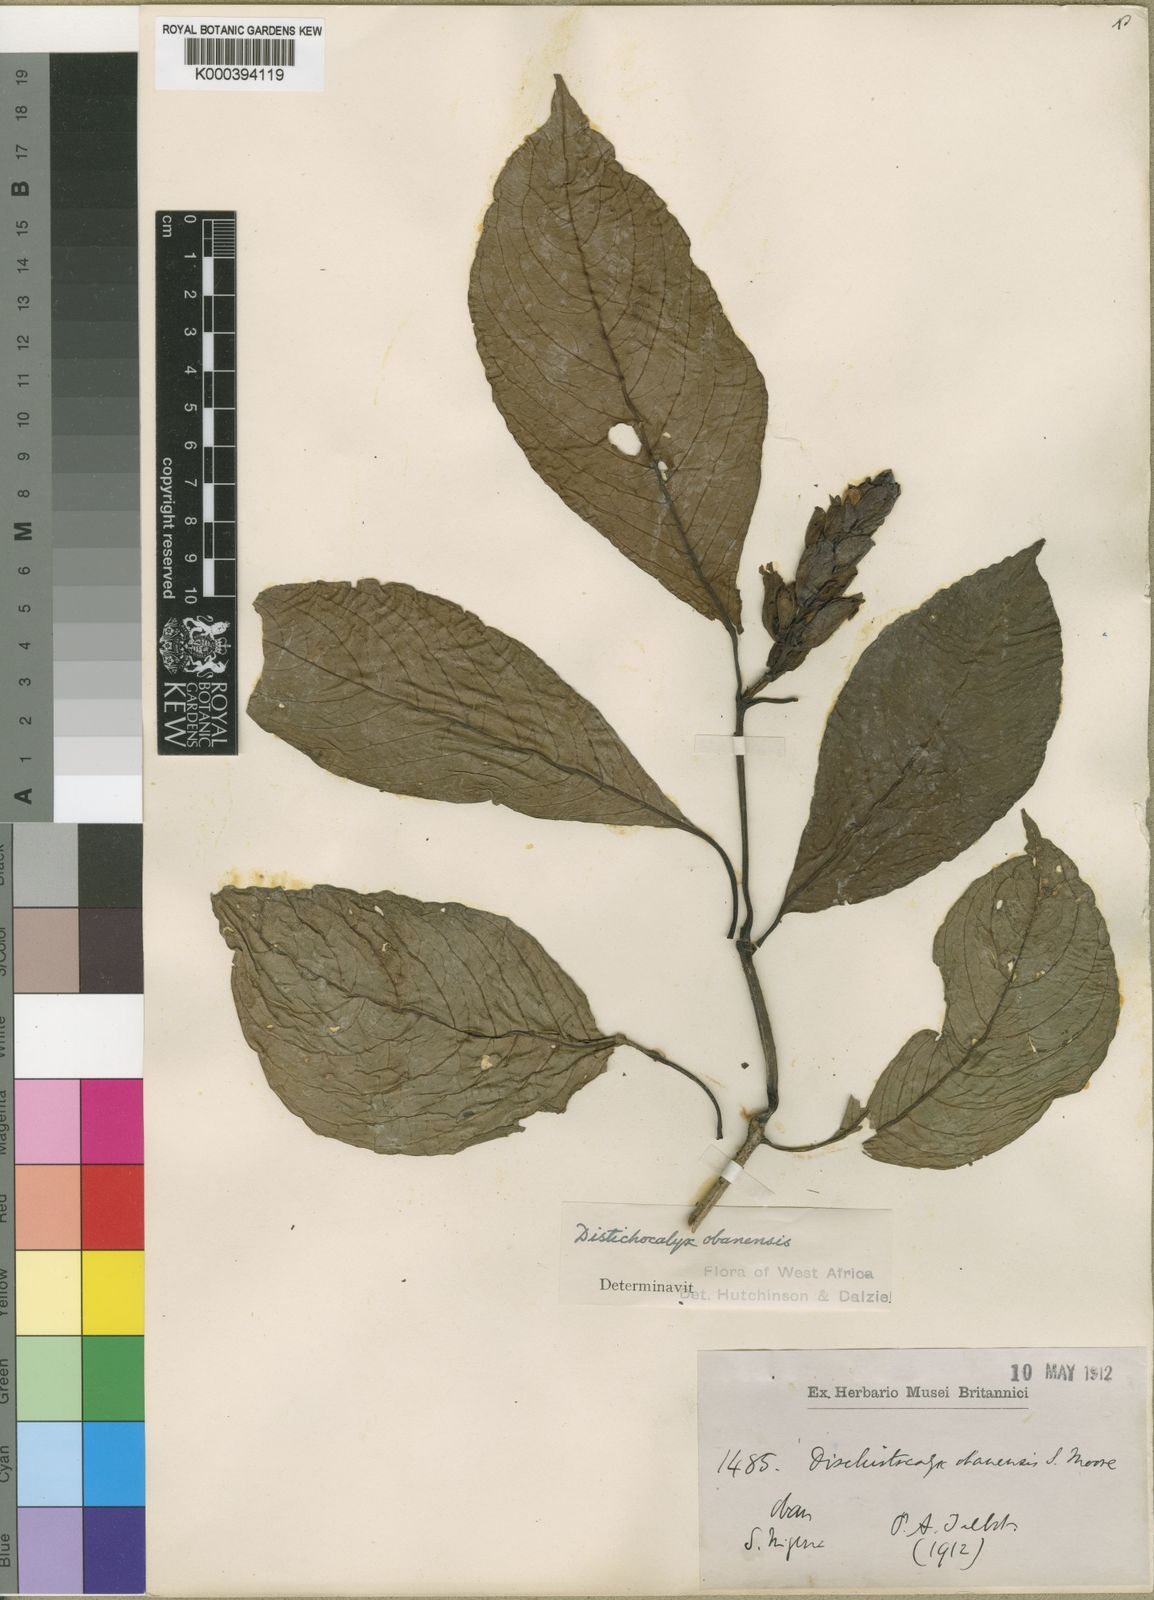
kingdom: Plantae
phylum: Tracheophyta
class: Magnoliopsida
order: Lamiales
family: Acanthaceae
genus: Dischistocalyx
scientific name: Dischistocalyx obanensis
